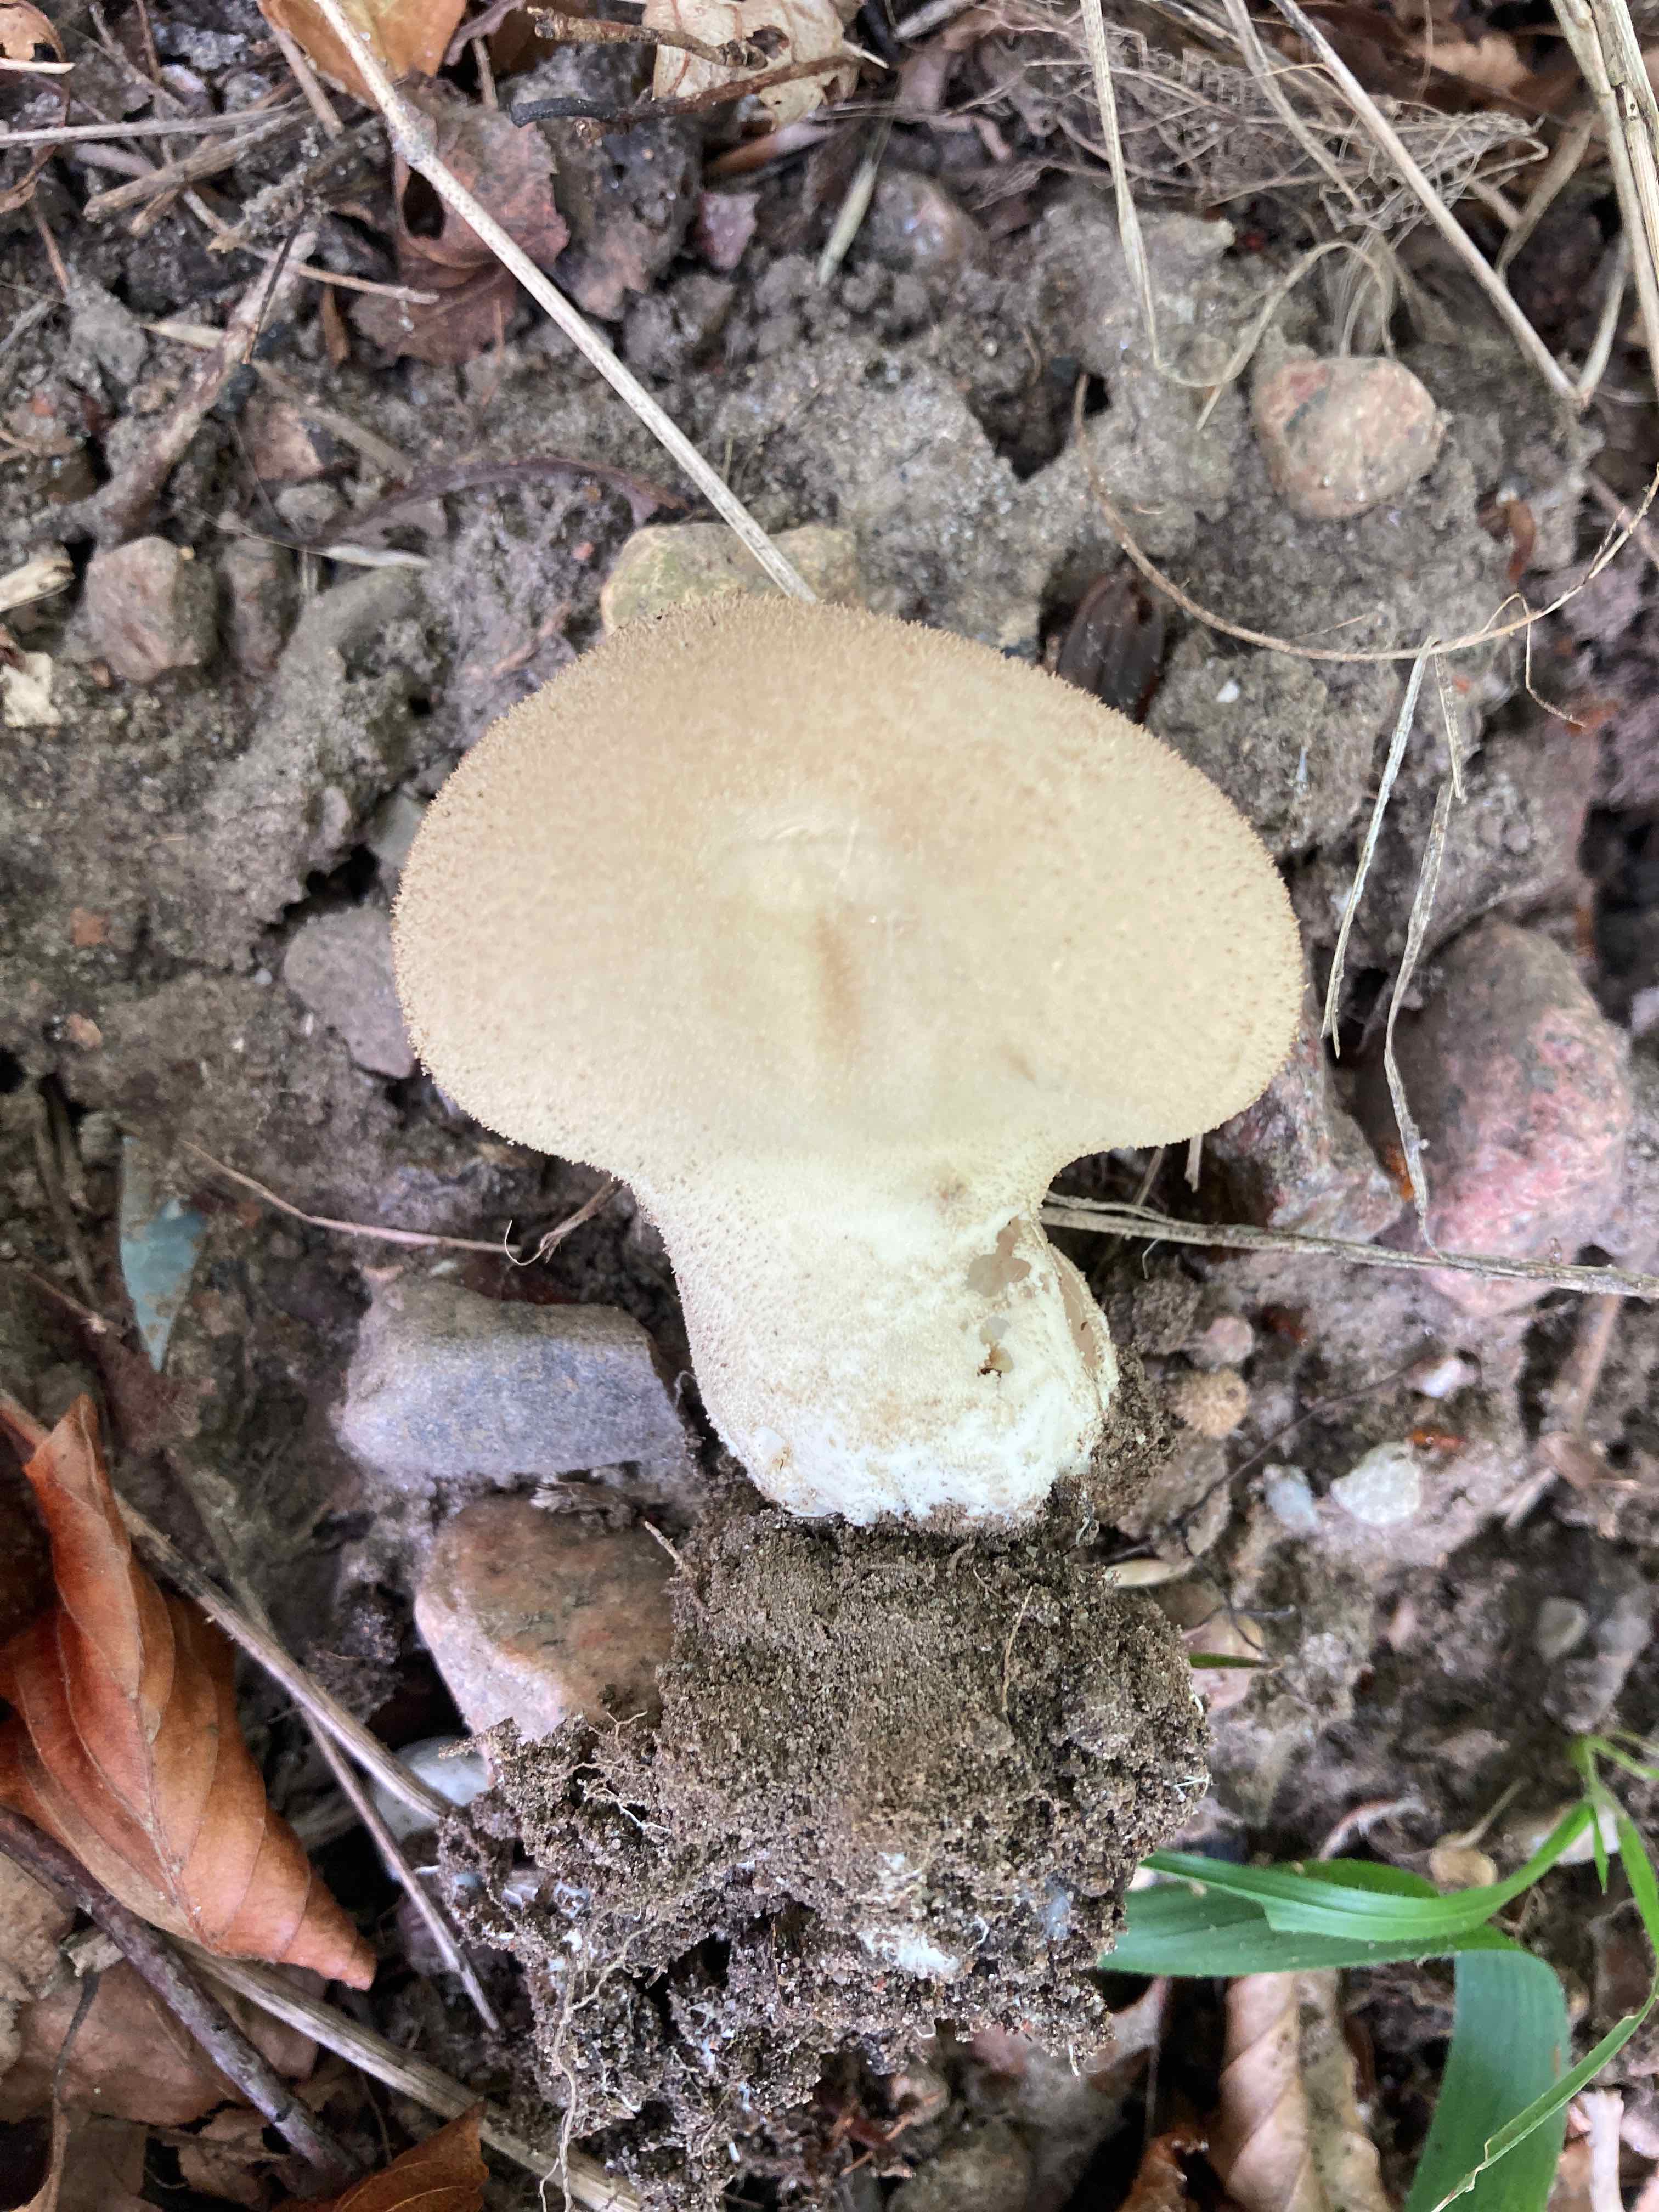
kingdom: Fungi
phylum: Basidiomycota
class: Agaricomycetes
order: Agaricales
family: Lycoperdaceae
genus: Lycoperdon
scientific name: Lycoperdon molle
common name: skov-støvbold
